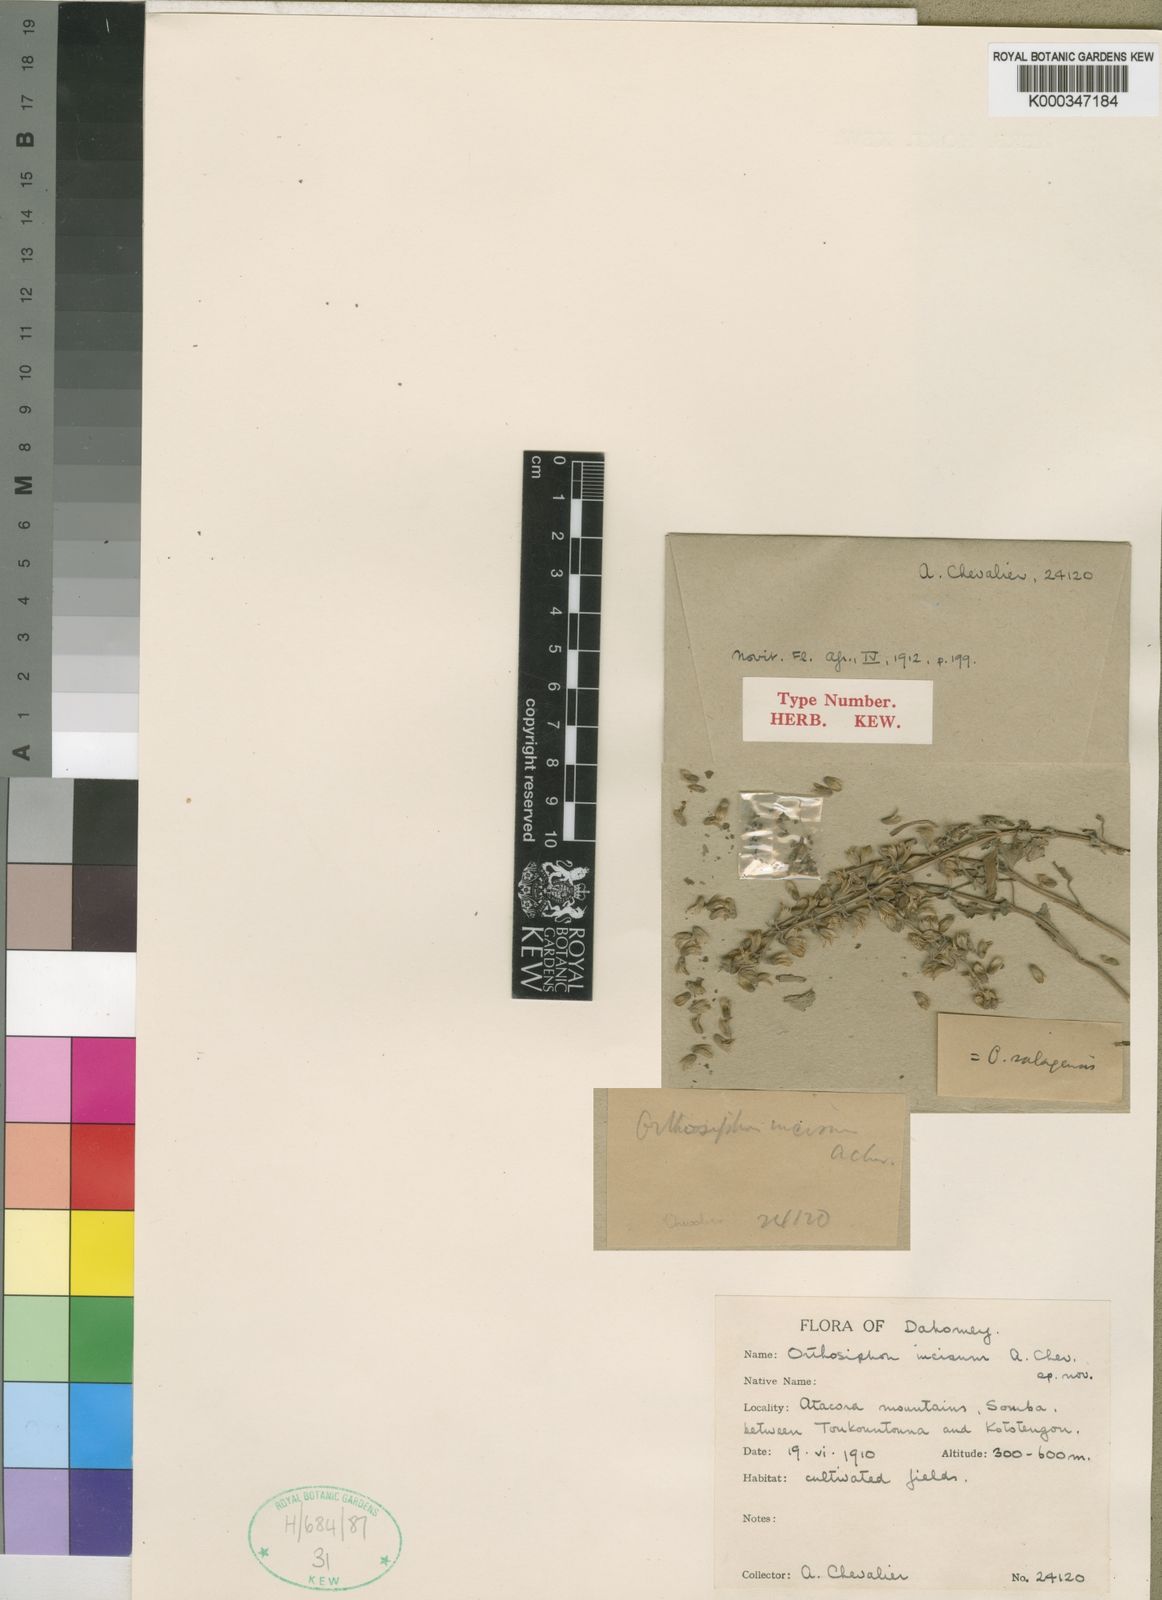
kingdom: Plantae
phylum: Tracheophyta
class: Magnoliopsida
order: Lamiales
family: Lamiaceae
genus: Orthosiphon
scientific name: Orthosiphon pallidus
